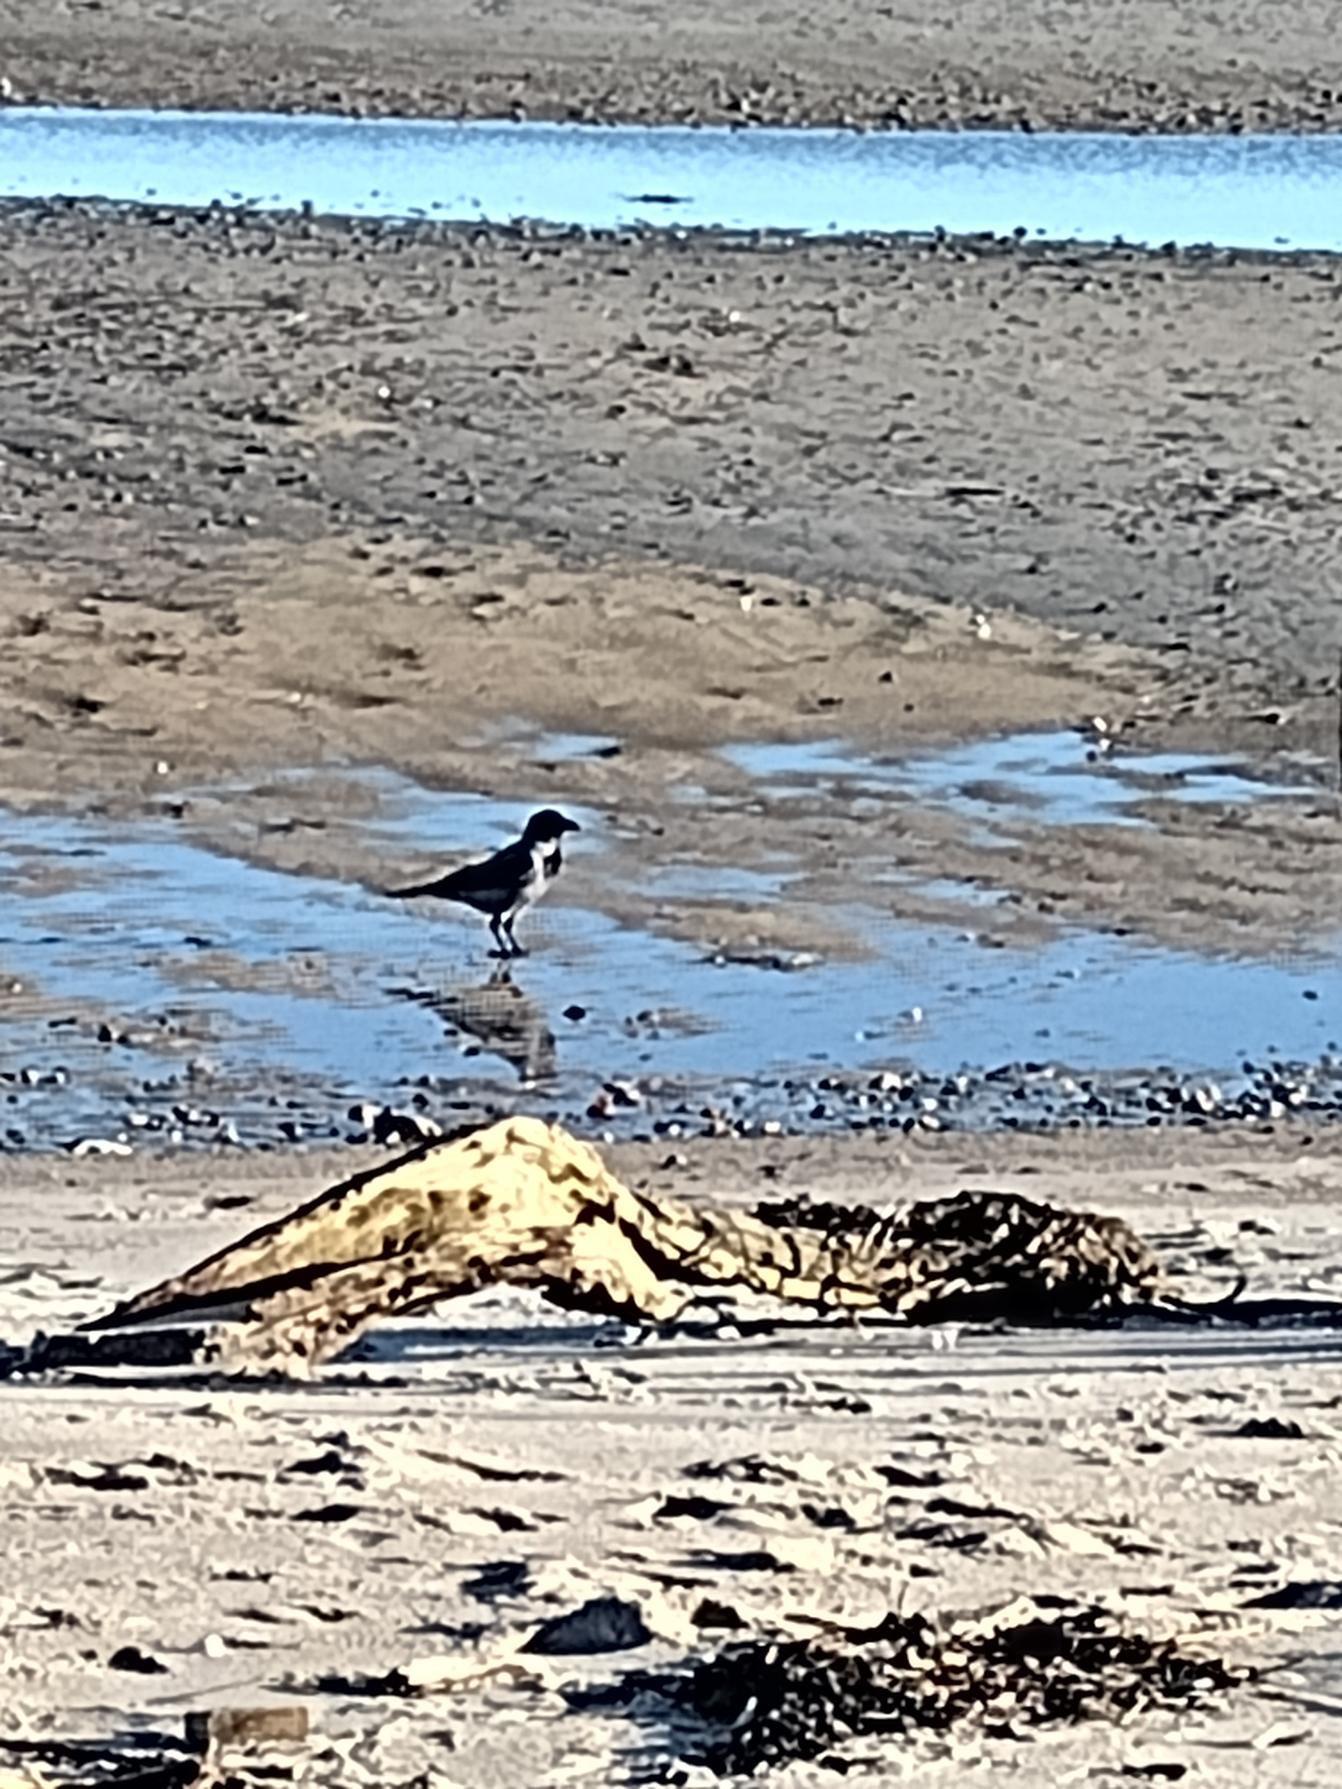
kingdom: Animalia
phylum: Chordata
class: Aves
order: Passeriformes
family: Corvidae
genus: Corvus
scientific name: Corvus cornix
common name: Gråkrage
